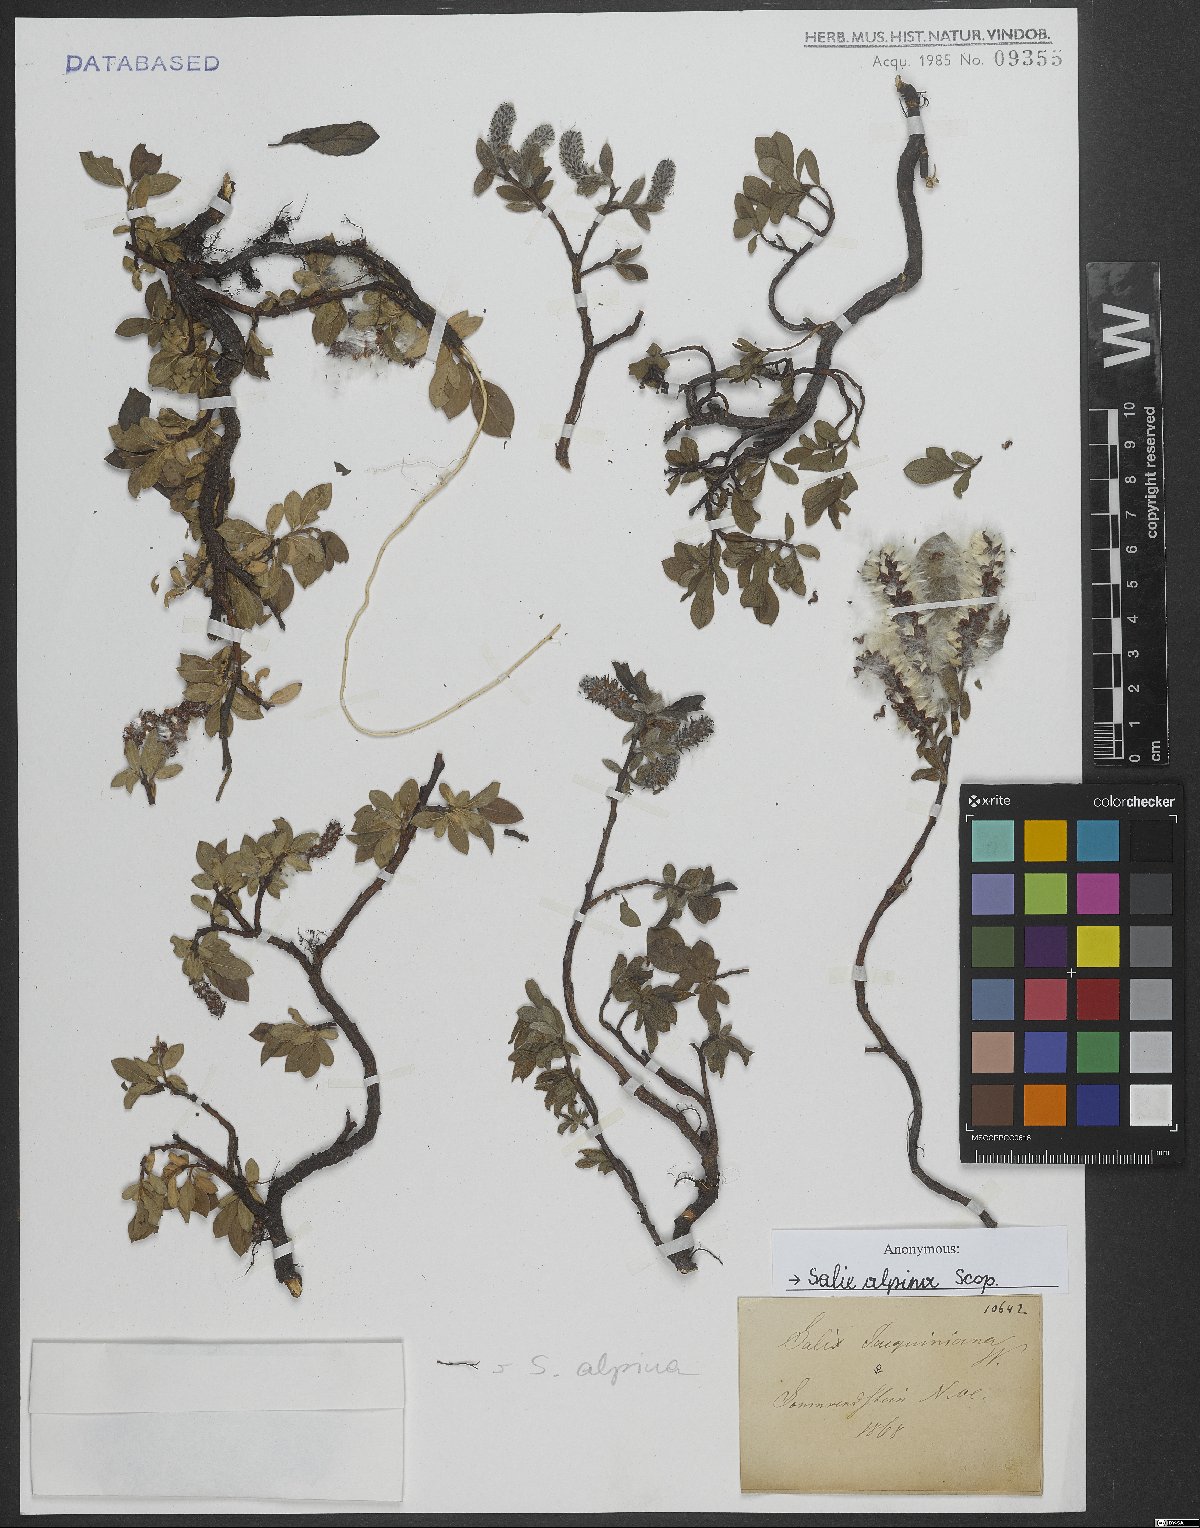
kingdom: Plantae
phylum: Tracheophyta
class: Magnoliopsida
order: Malpighiales
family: Salicaceae
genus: Salix
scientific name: Salix alpina
